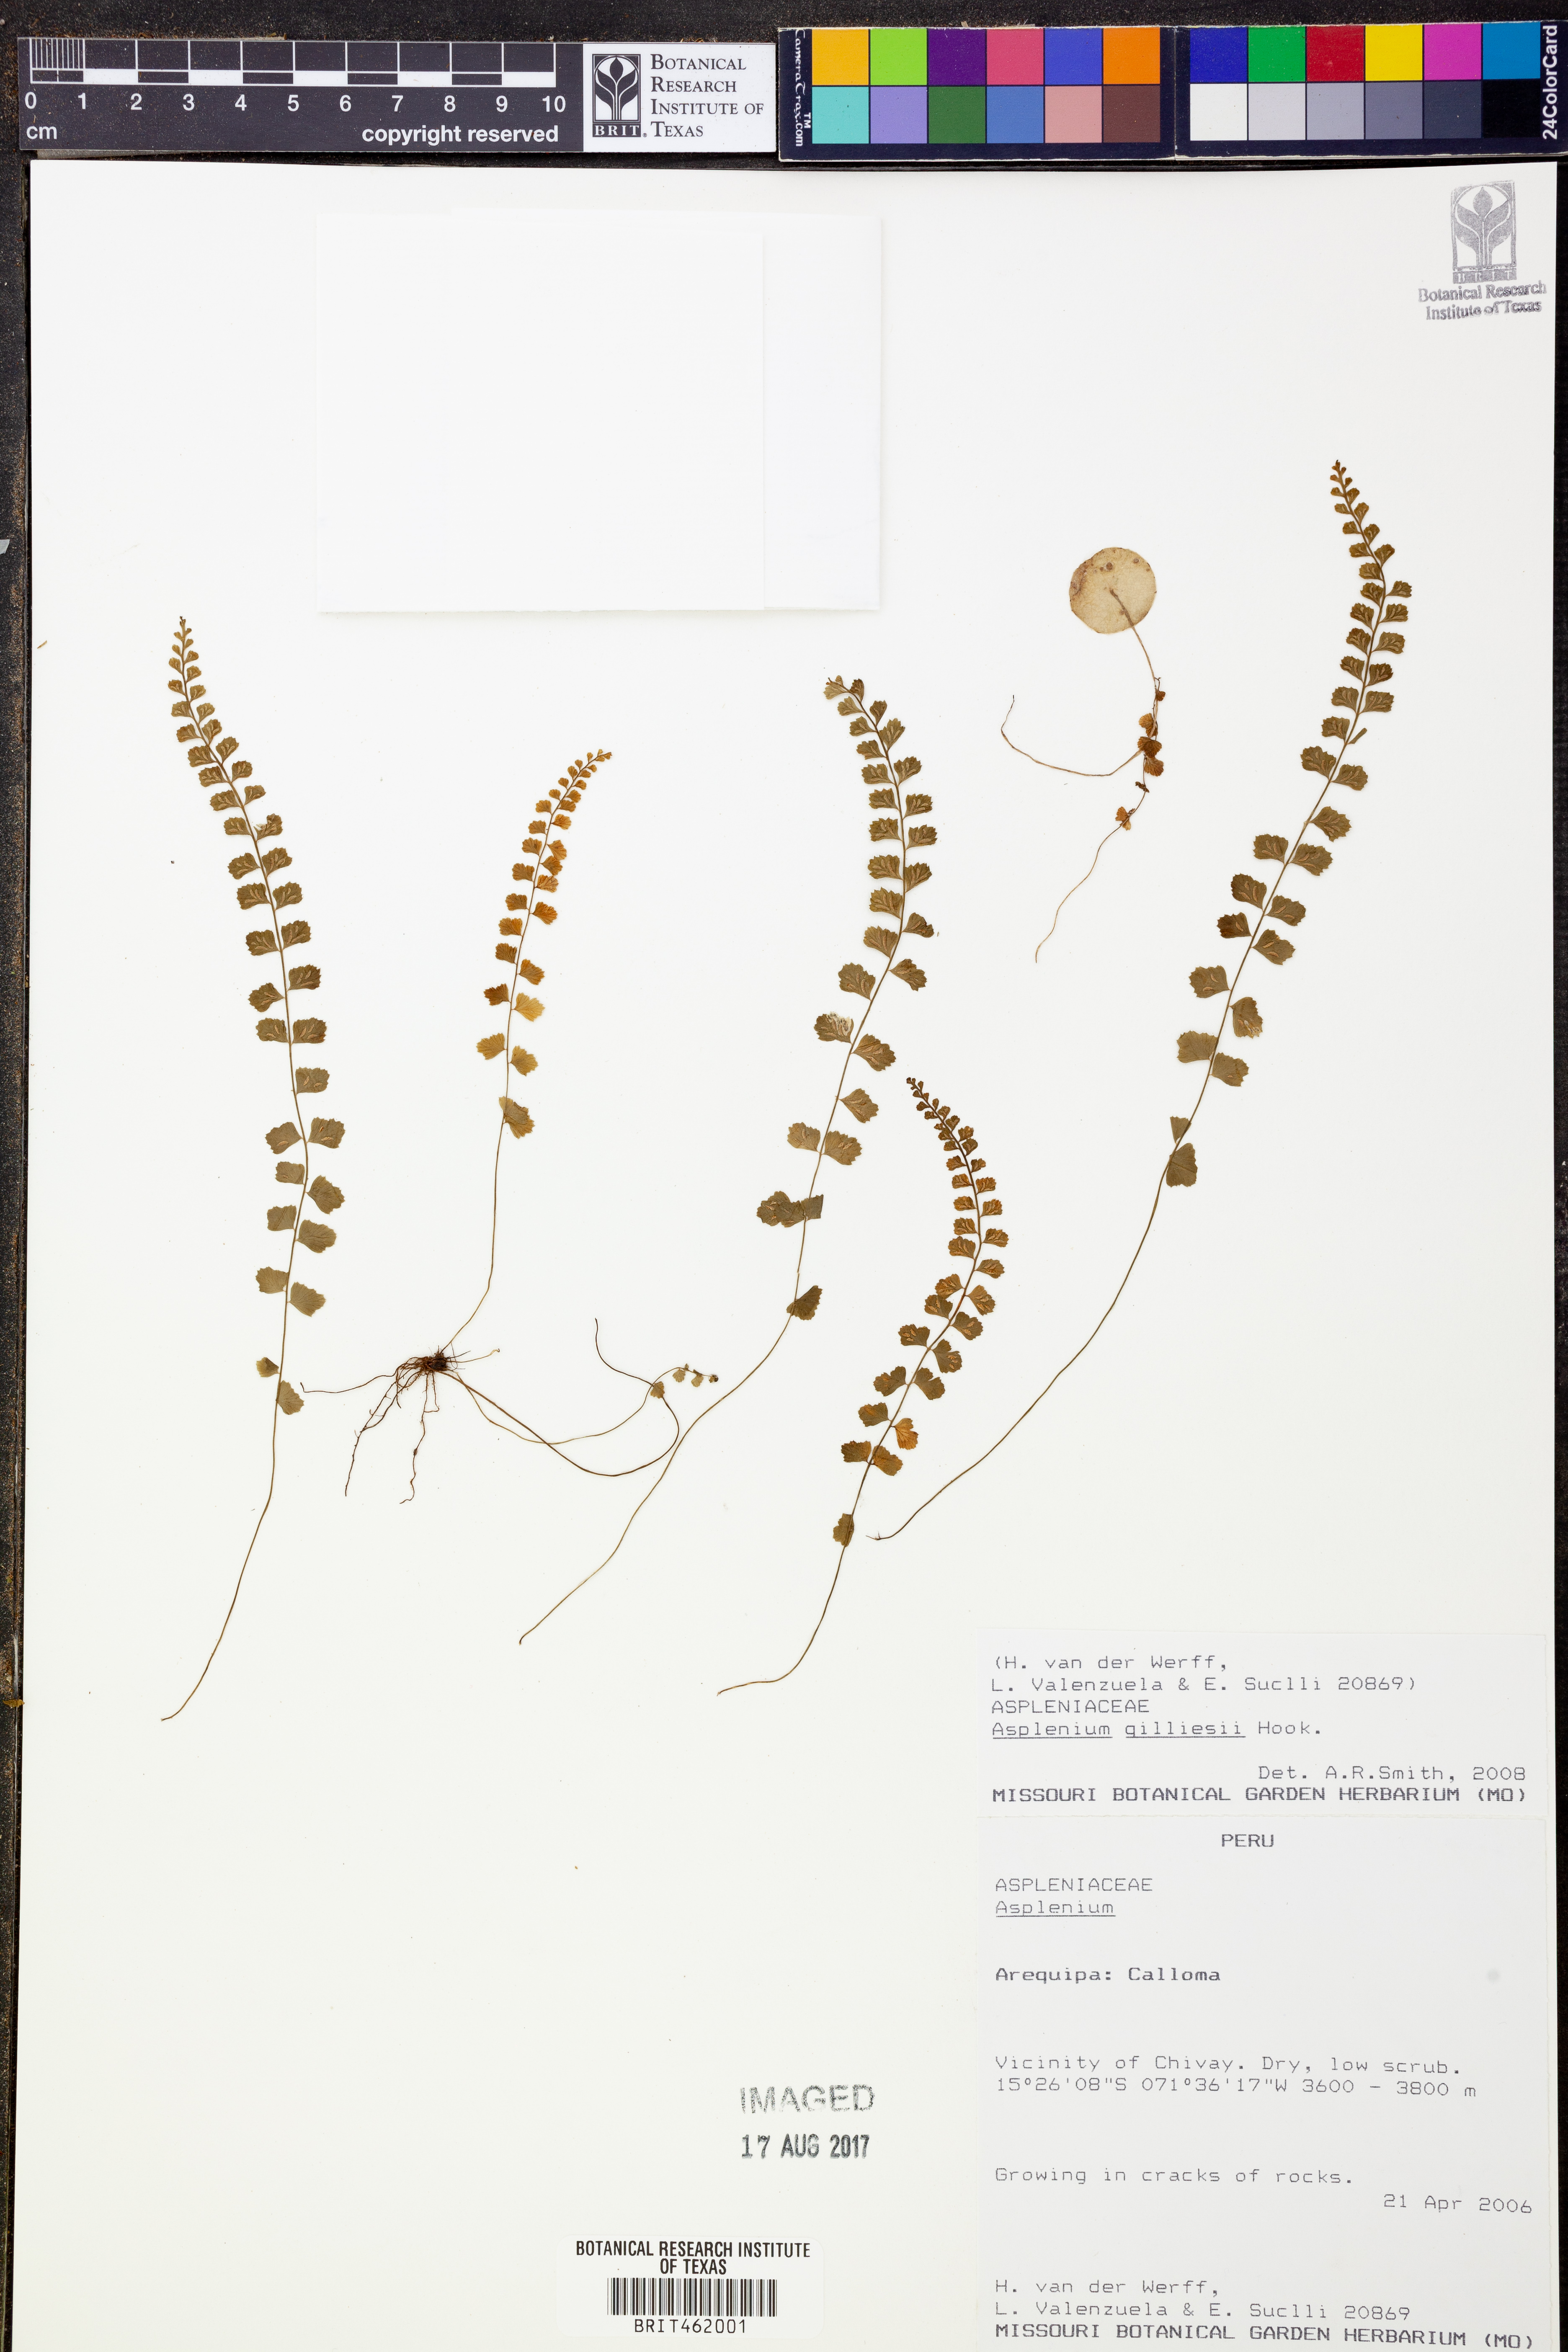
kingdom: Plantae
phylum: Tracheophyta
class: Polypodiopsida
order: Polypodiales
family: Aspleniaceae
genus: Asplenium
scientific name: Asplenium
